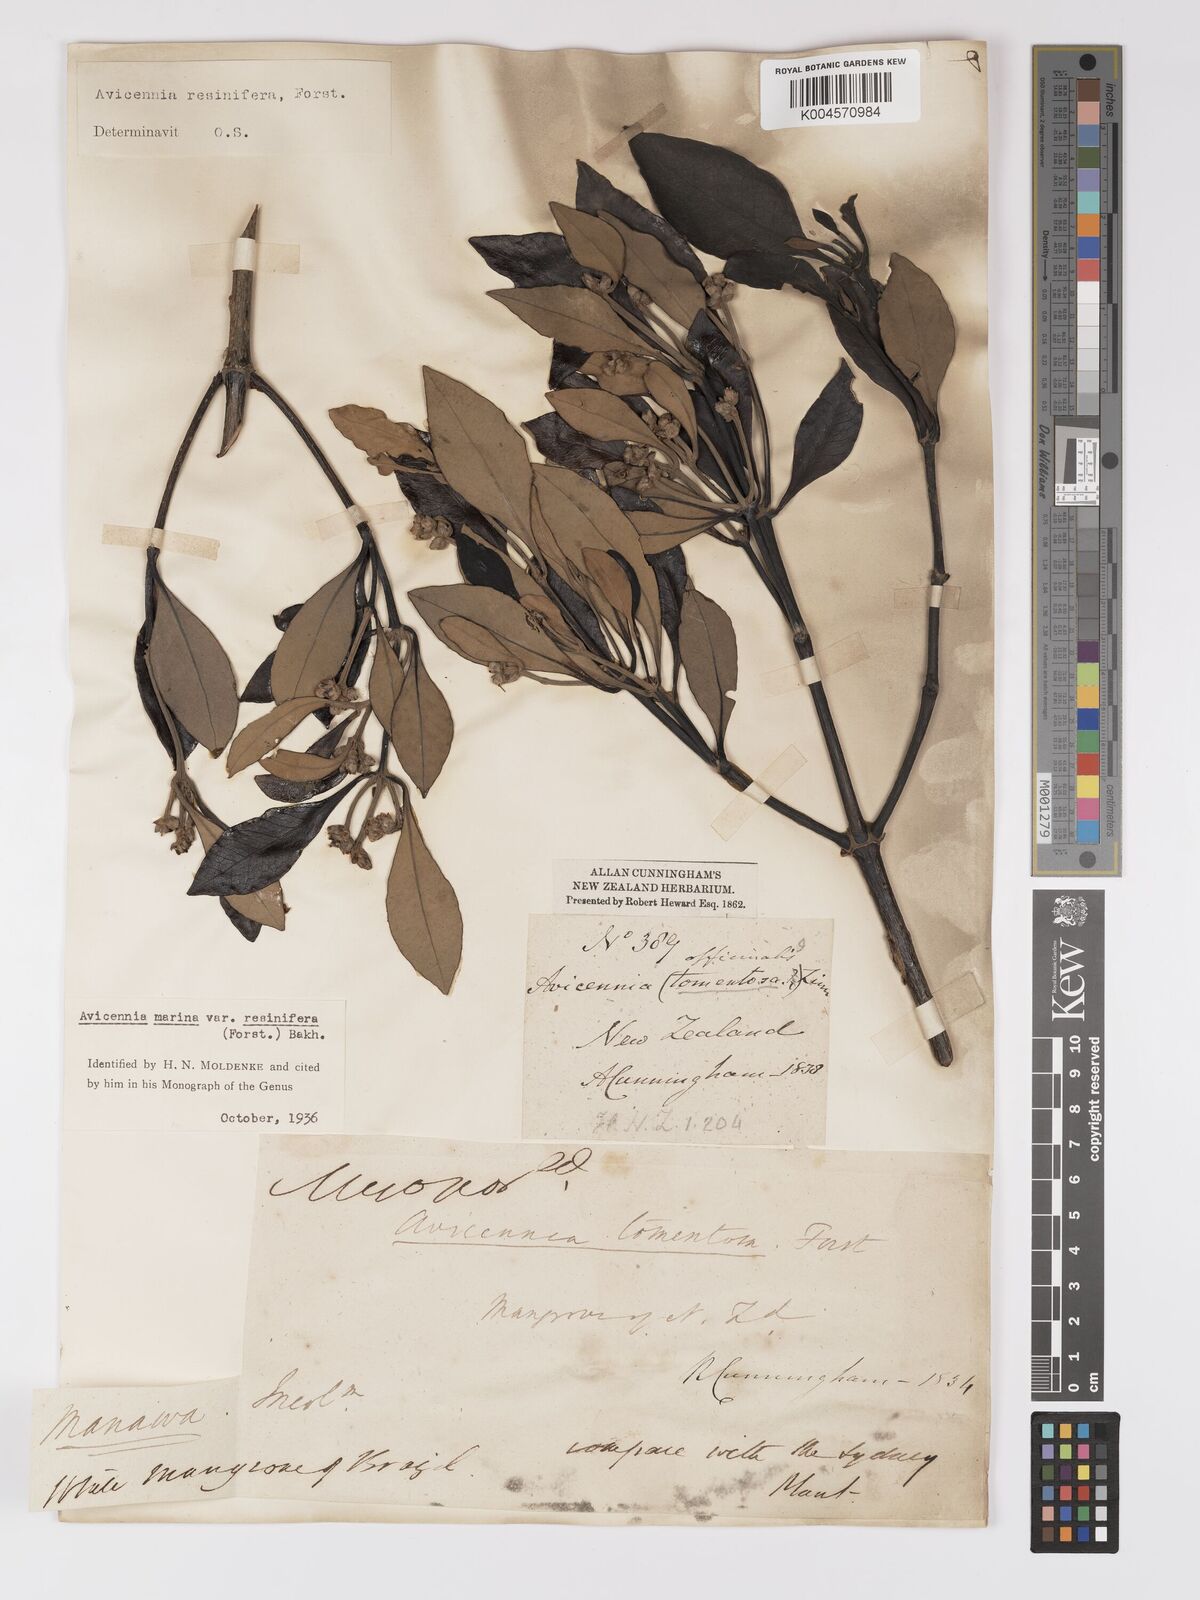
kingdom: Plantae
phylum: Tracheophyta
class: Magnoliopsida
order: Lamiales
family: Acanthaceae
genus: Avicennia
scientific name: Avicennia marina
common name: Gray mangrove
